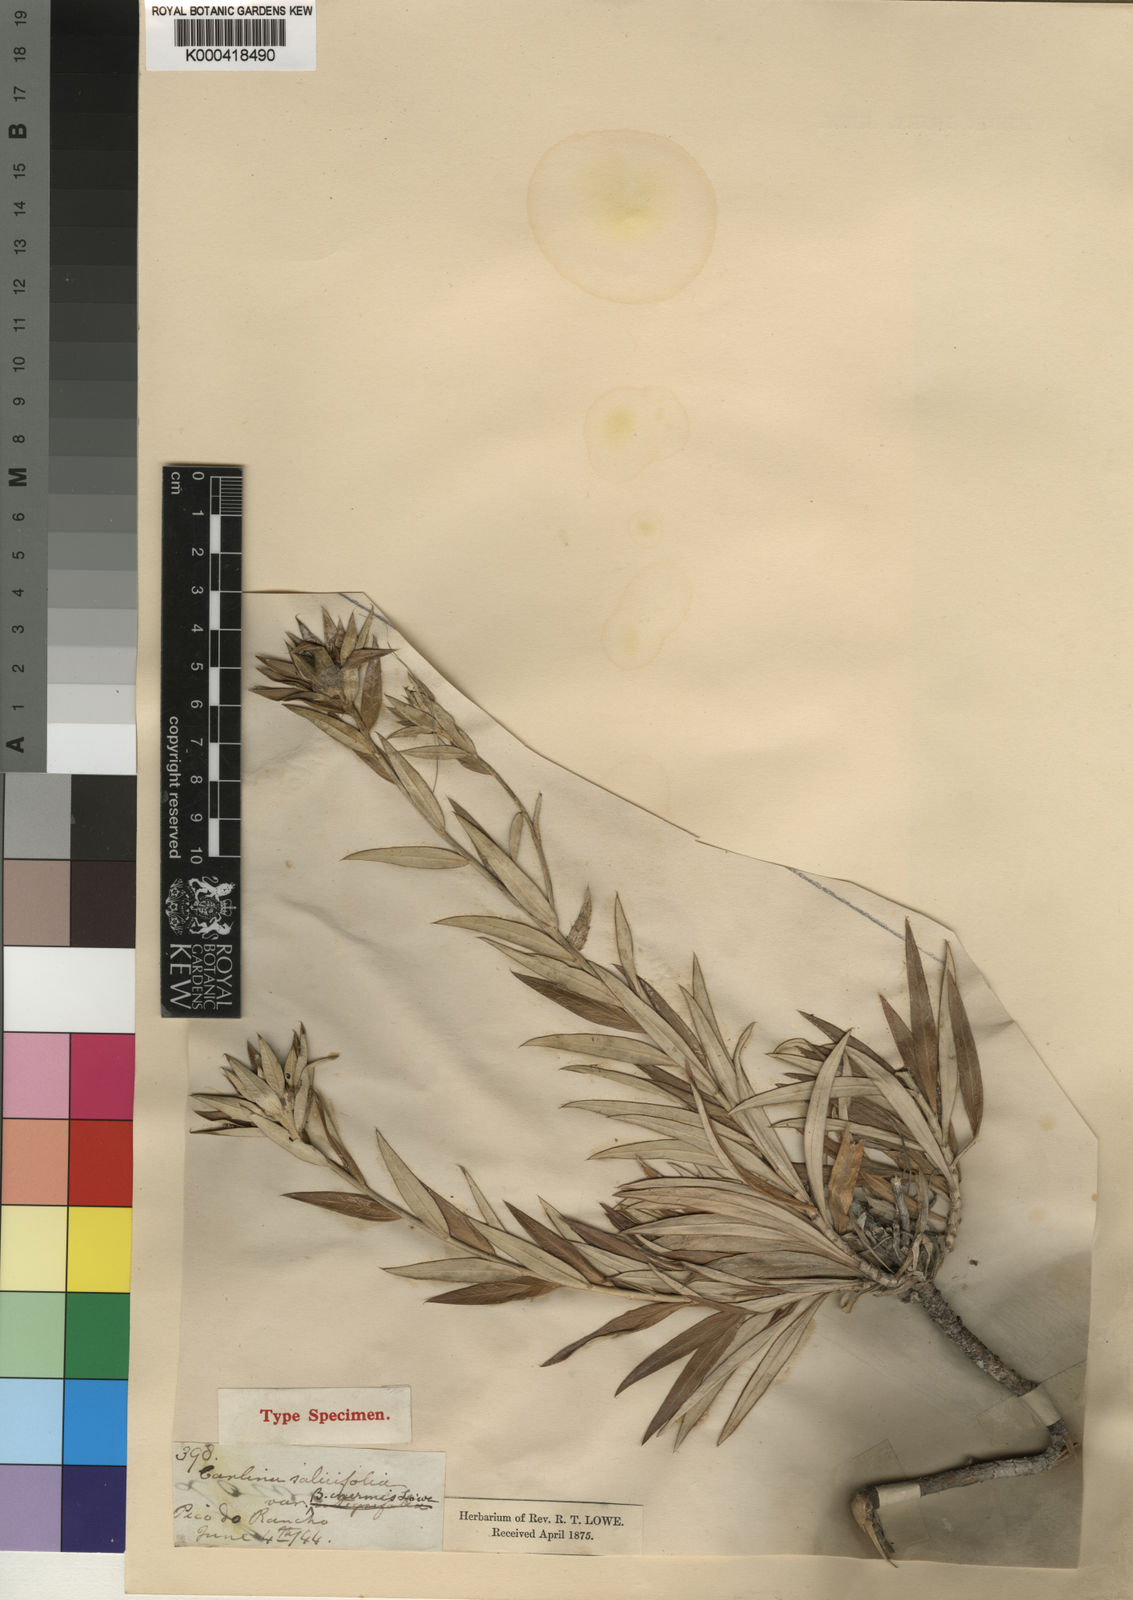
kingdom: Plantae
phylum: Tracheophyta
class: Magnoliopsida
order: Asterales
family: Asteraceae
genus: Carlina
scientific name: Carlina salicifolia
